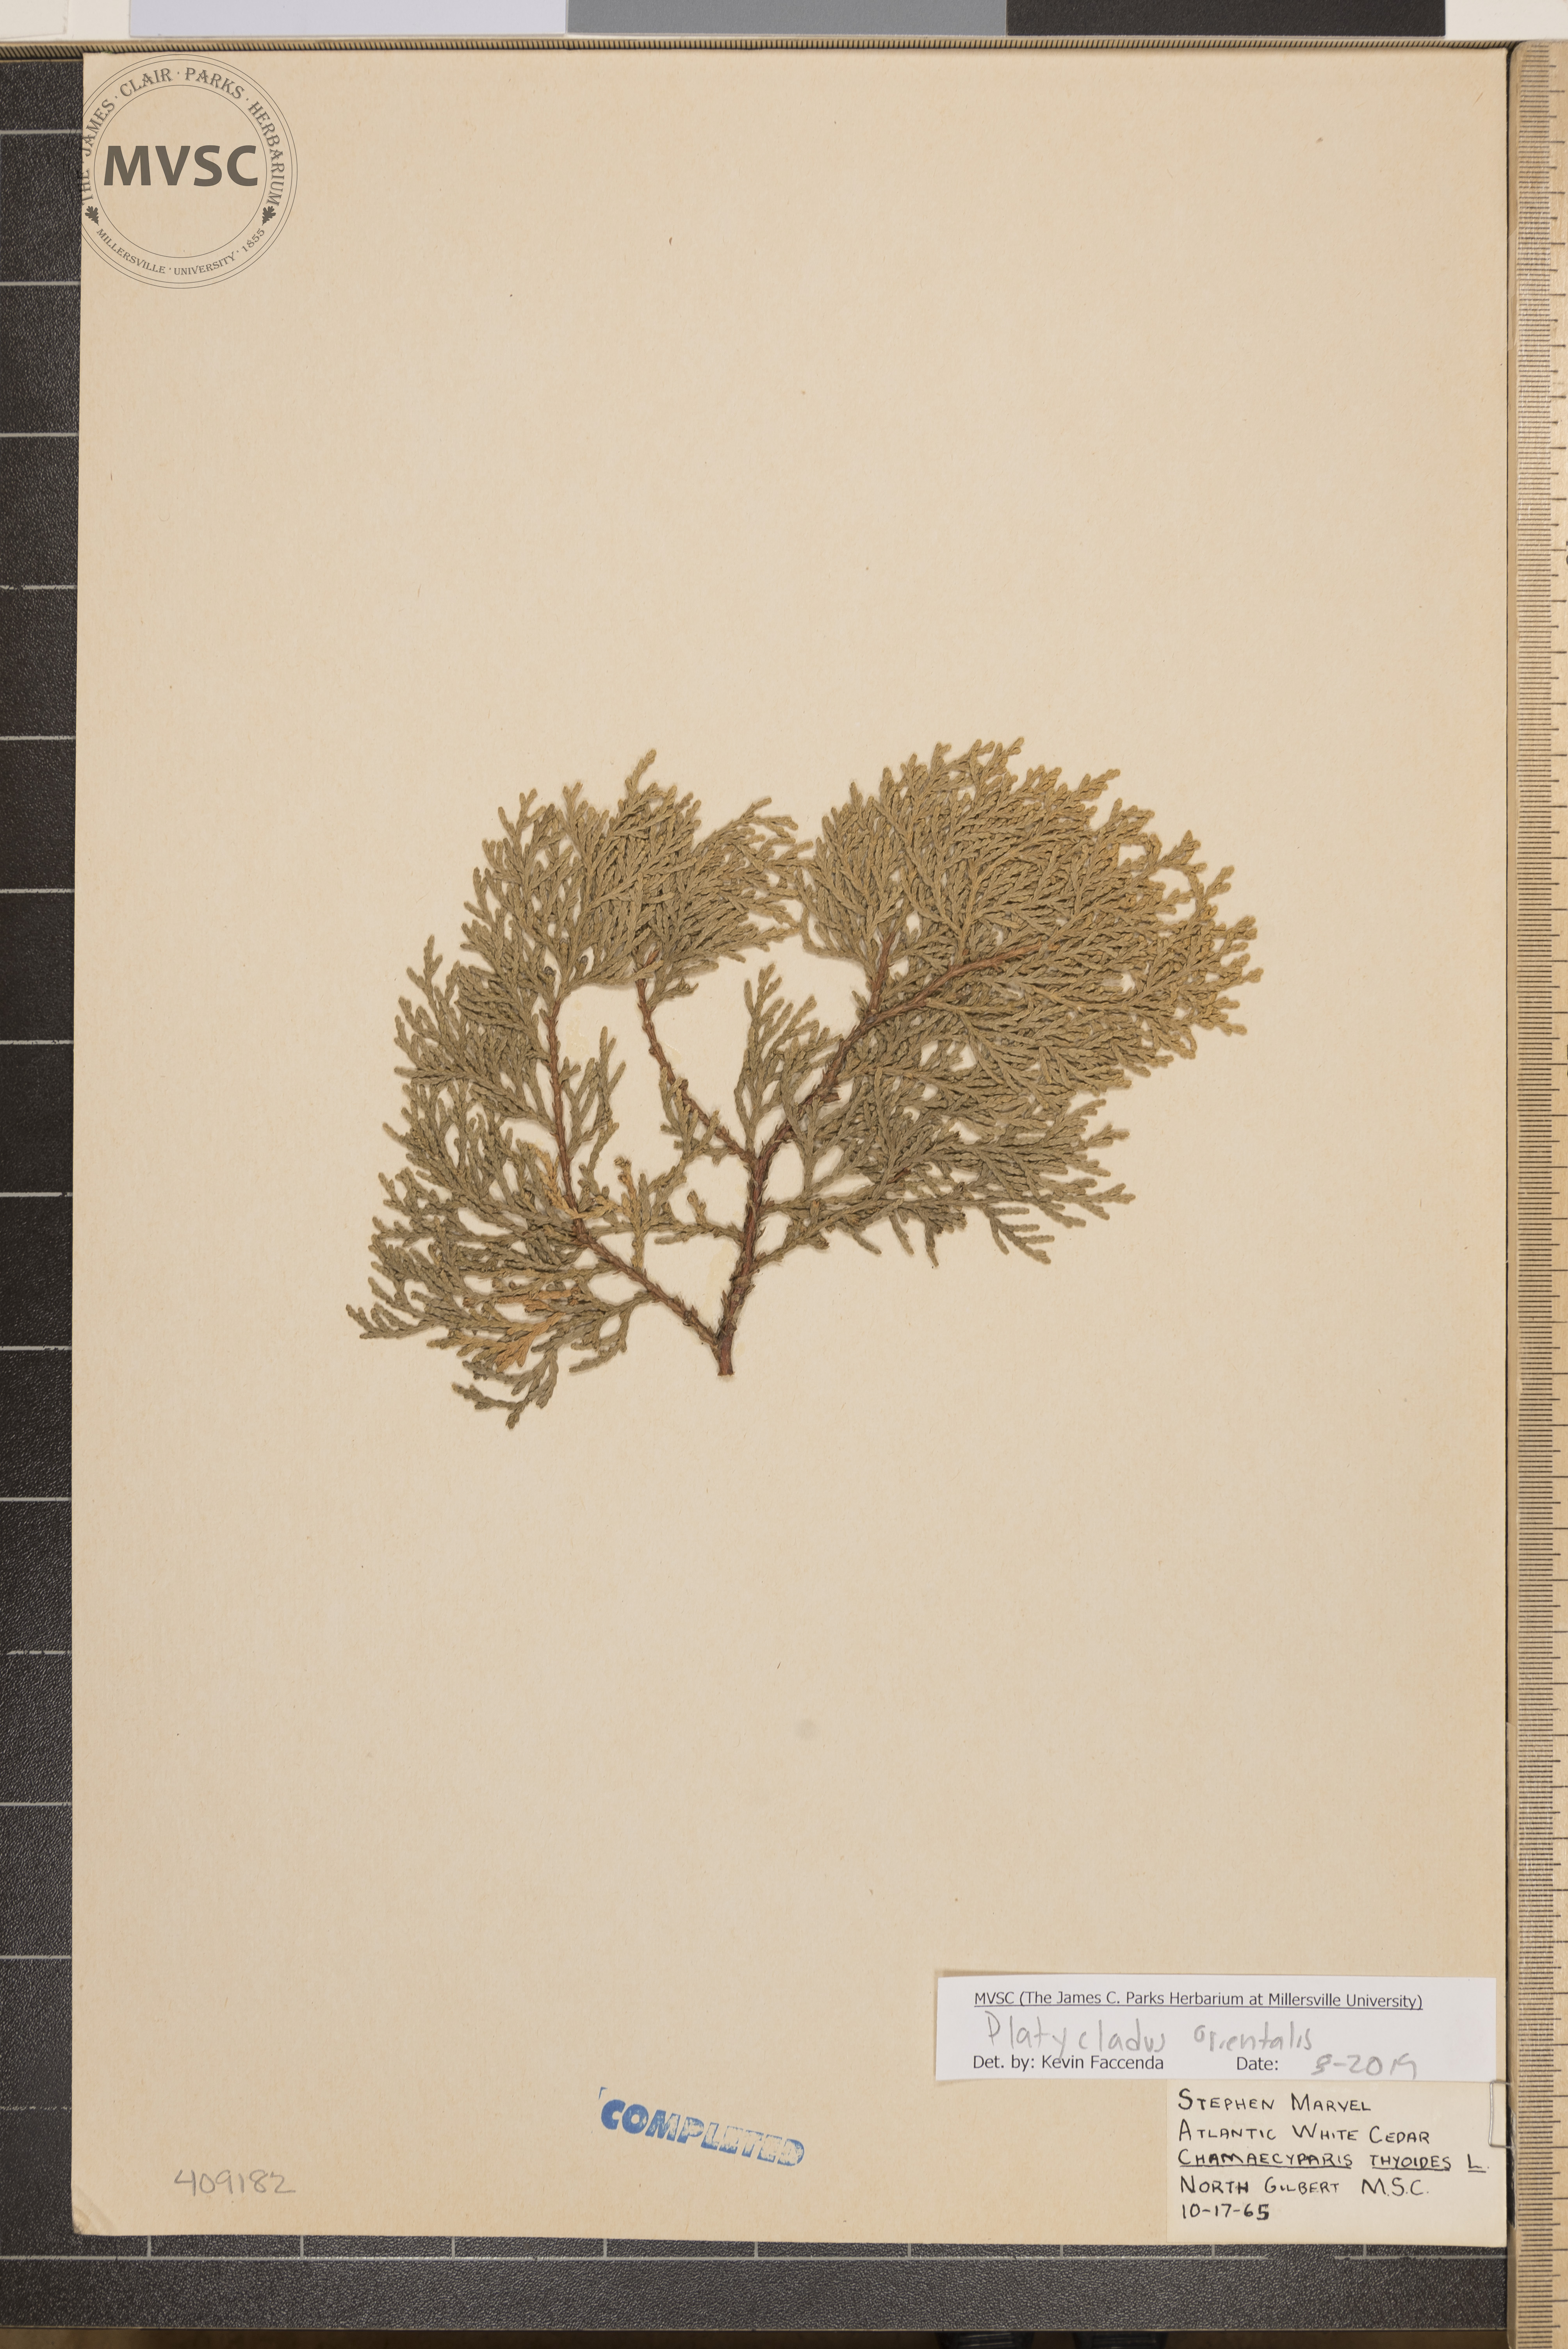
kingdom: Plantae
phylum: Tracheophyta
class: Pinopsida
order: Pinales
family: Cupressaceae
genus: Platycladus
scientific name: Platycladus orientalis
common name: Chinese thuja
